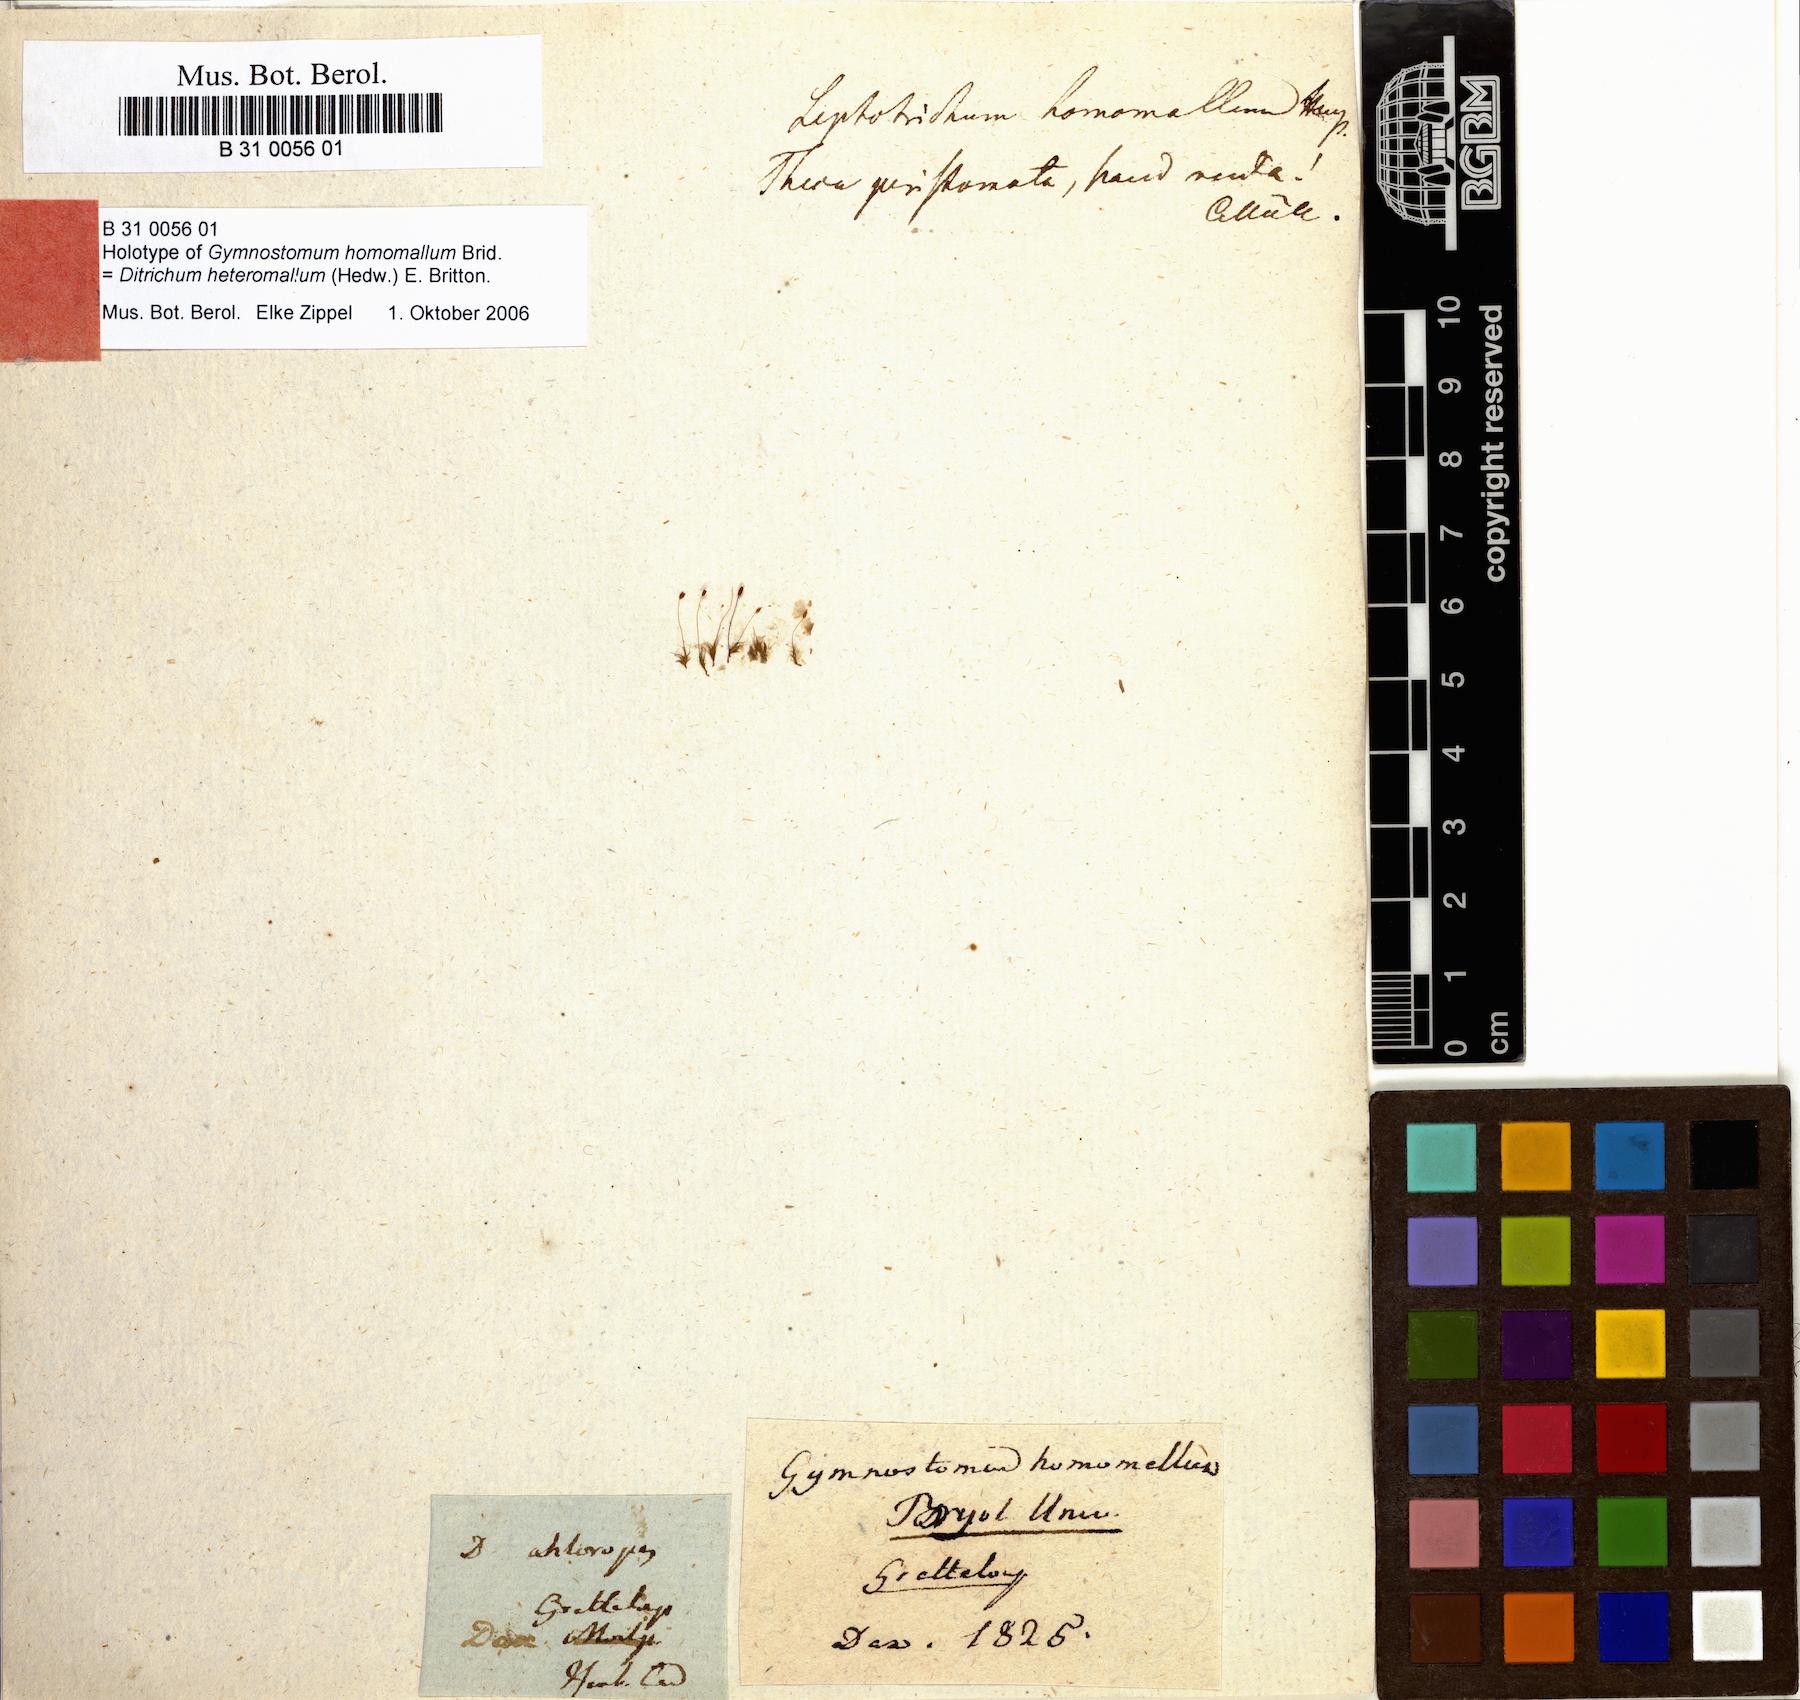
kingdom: Plantae
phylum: Bryophyta
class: Bryopsida
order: Dicranales
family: Ditrichaceae
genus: Ditrichum
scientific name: Ditrichum heteromallum
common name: Curve-leaved ditrichum
